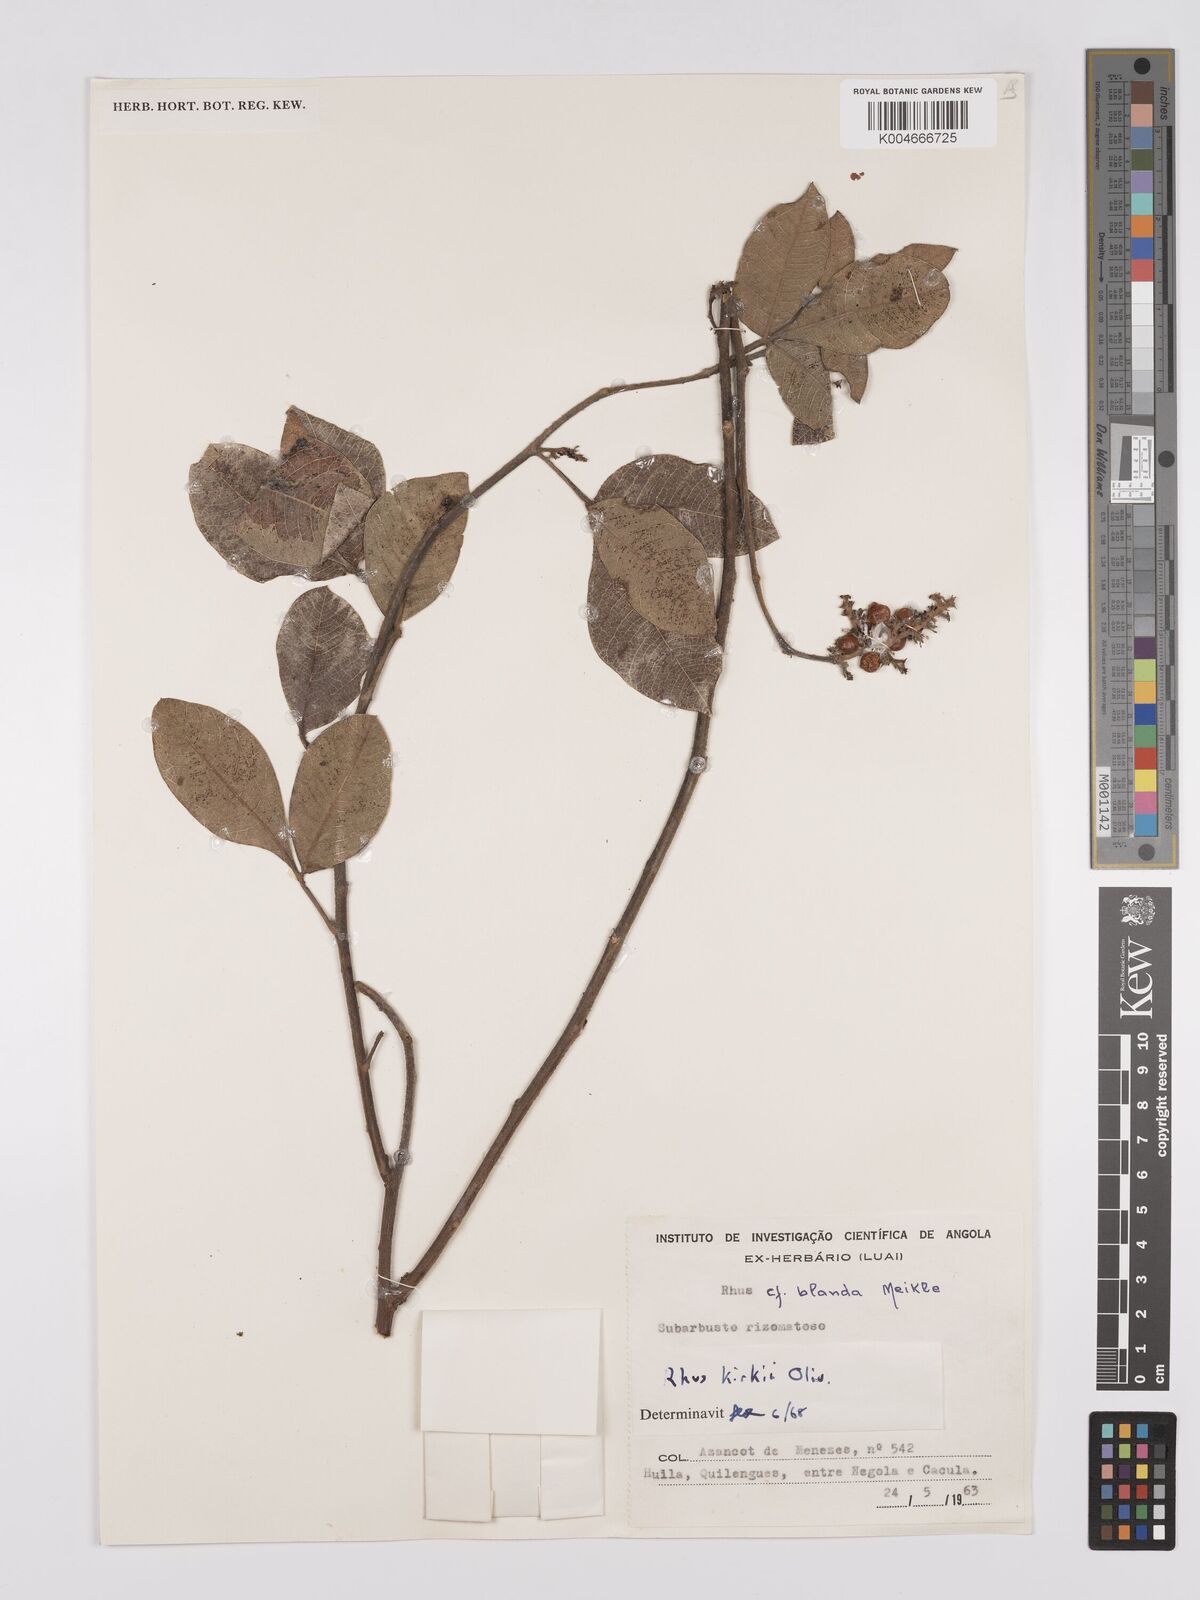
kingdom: Plantae
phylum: Tracheophyta
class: Magnoliopsida
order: Sapindales
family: Anacardiaceae
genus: Searsia
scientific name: Searsia kirkii
